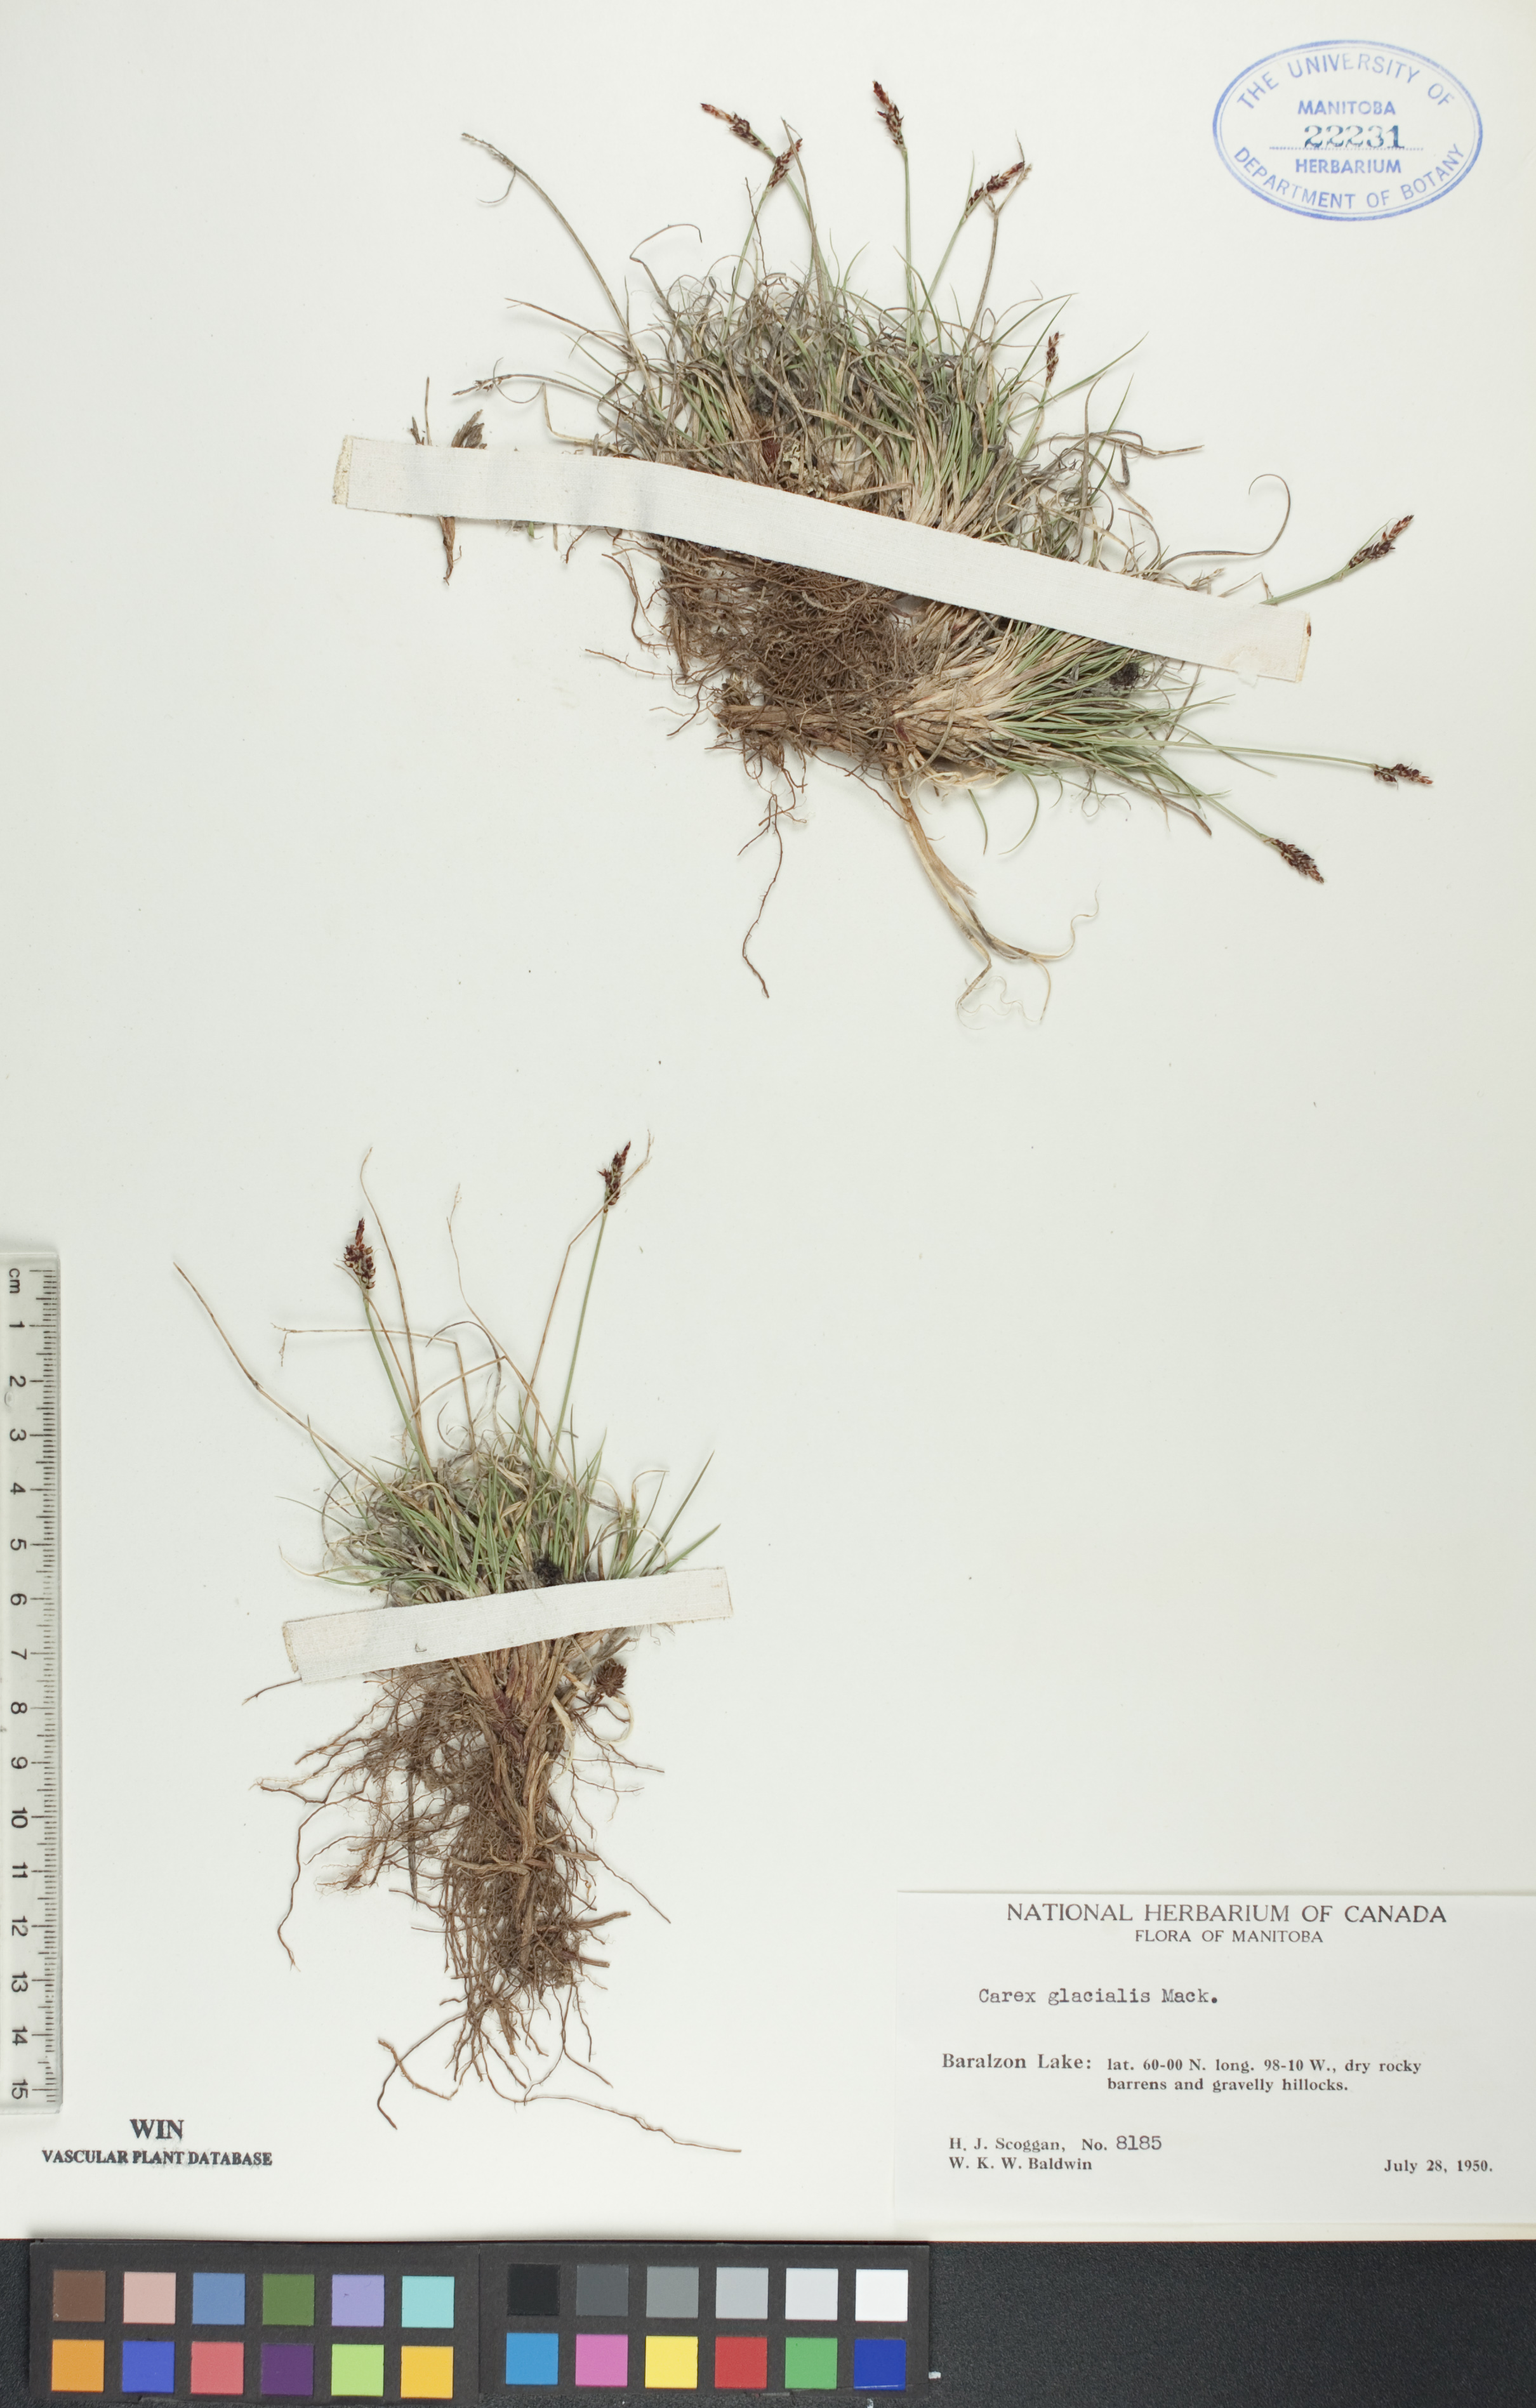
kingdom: Plantae
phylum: Tracheophyta
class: Liliopsida
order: Poales
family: Cyperaceae
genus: Carex
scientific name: Carex glacialis
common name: Newfoundland sedge
